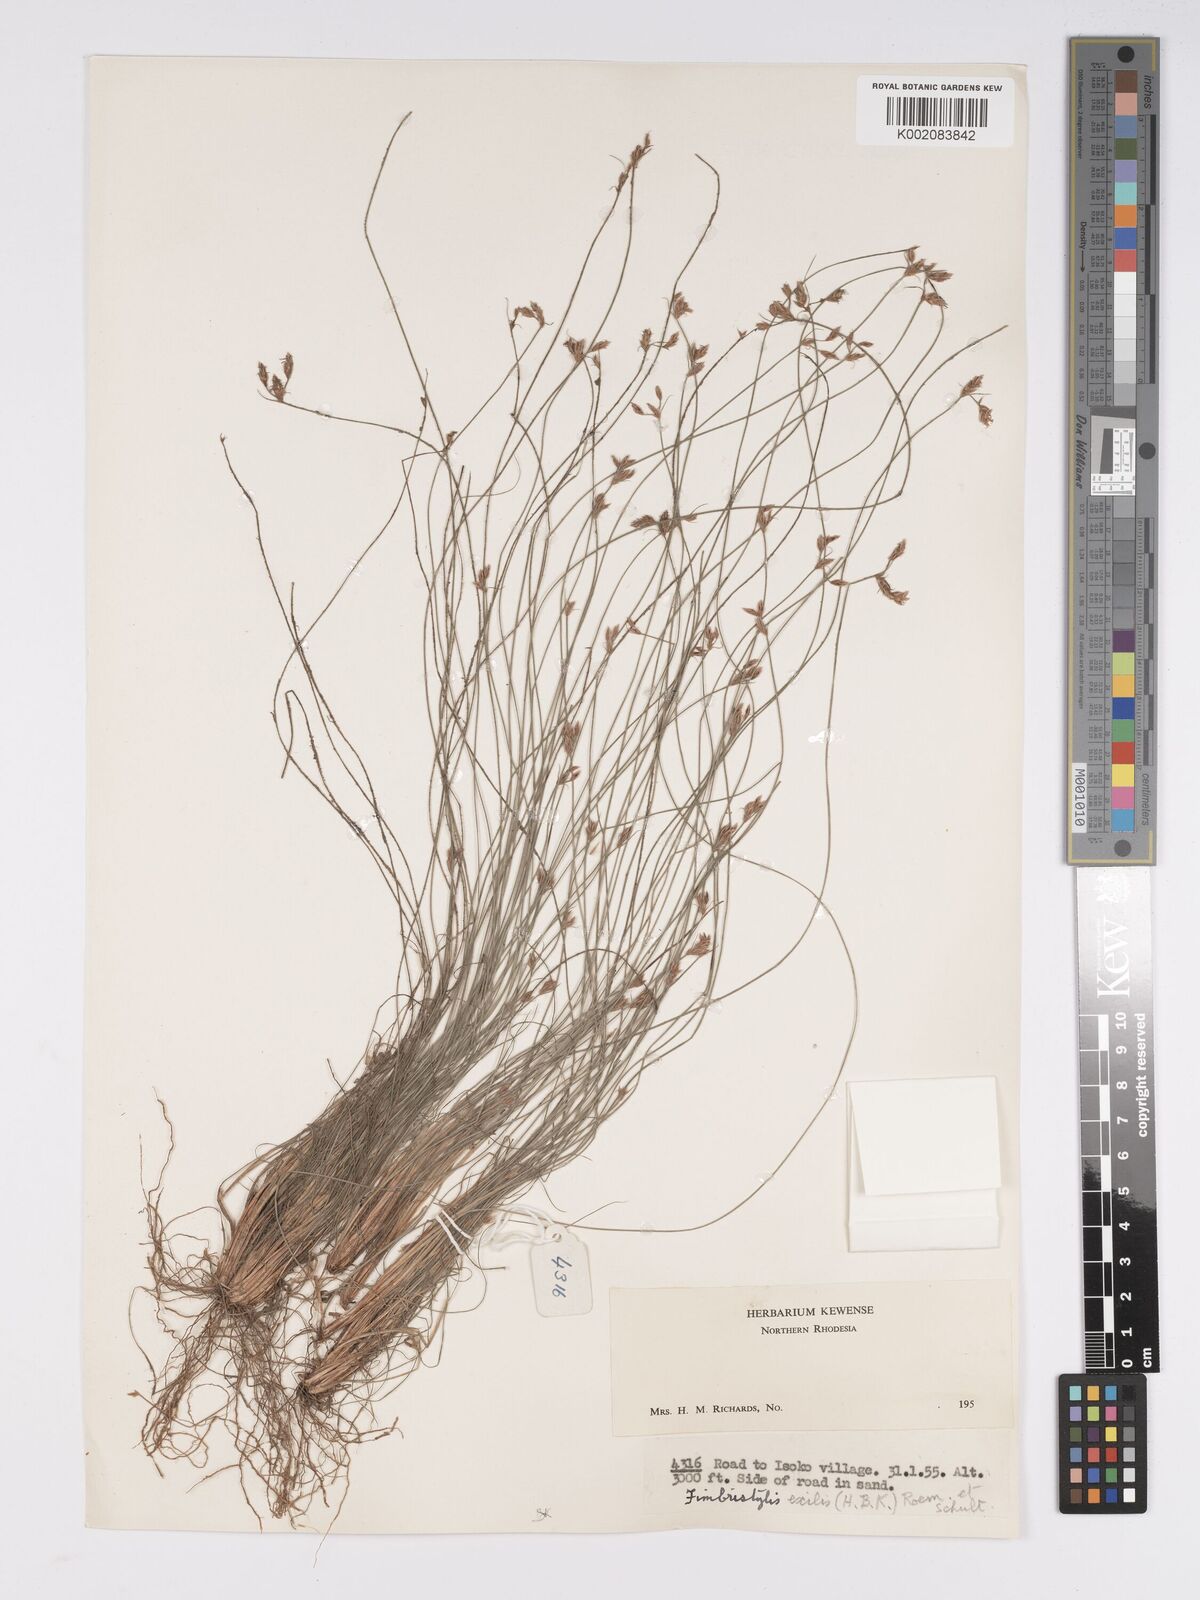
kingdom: Plantae
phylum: Tracheophyta
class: Liliopsida
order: Poales
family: Cyperaceae
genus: Bulbostylis
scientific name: Bulbostylis hispidula
